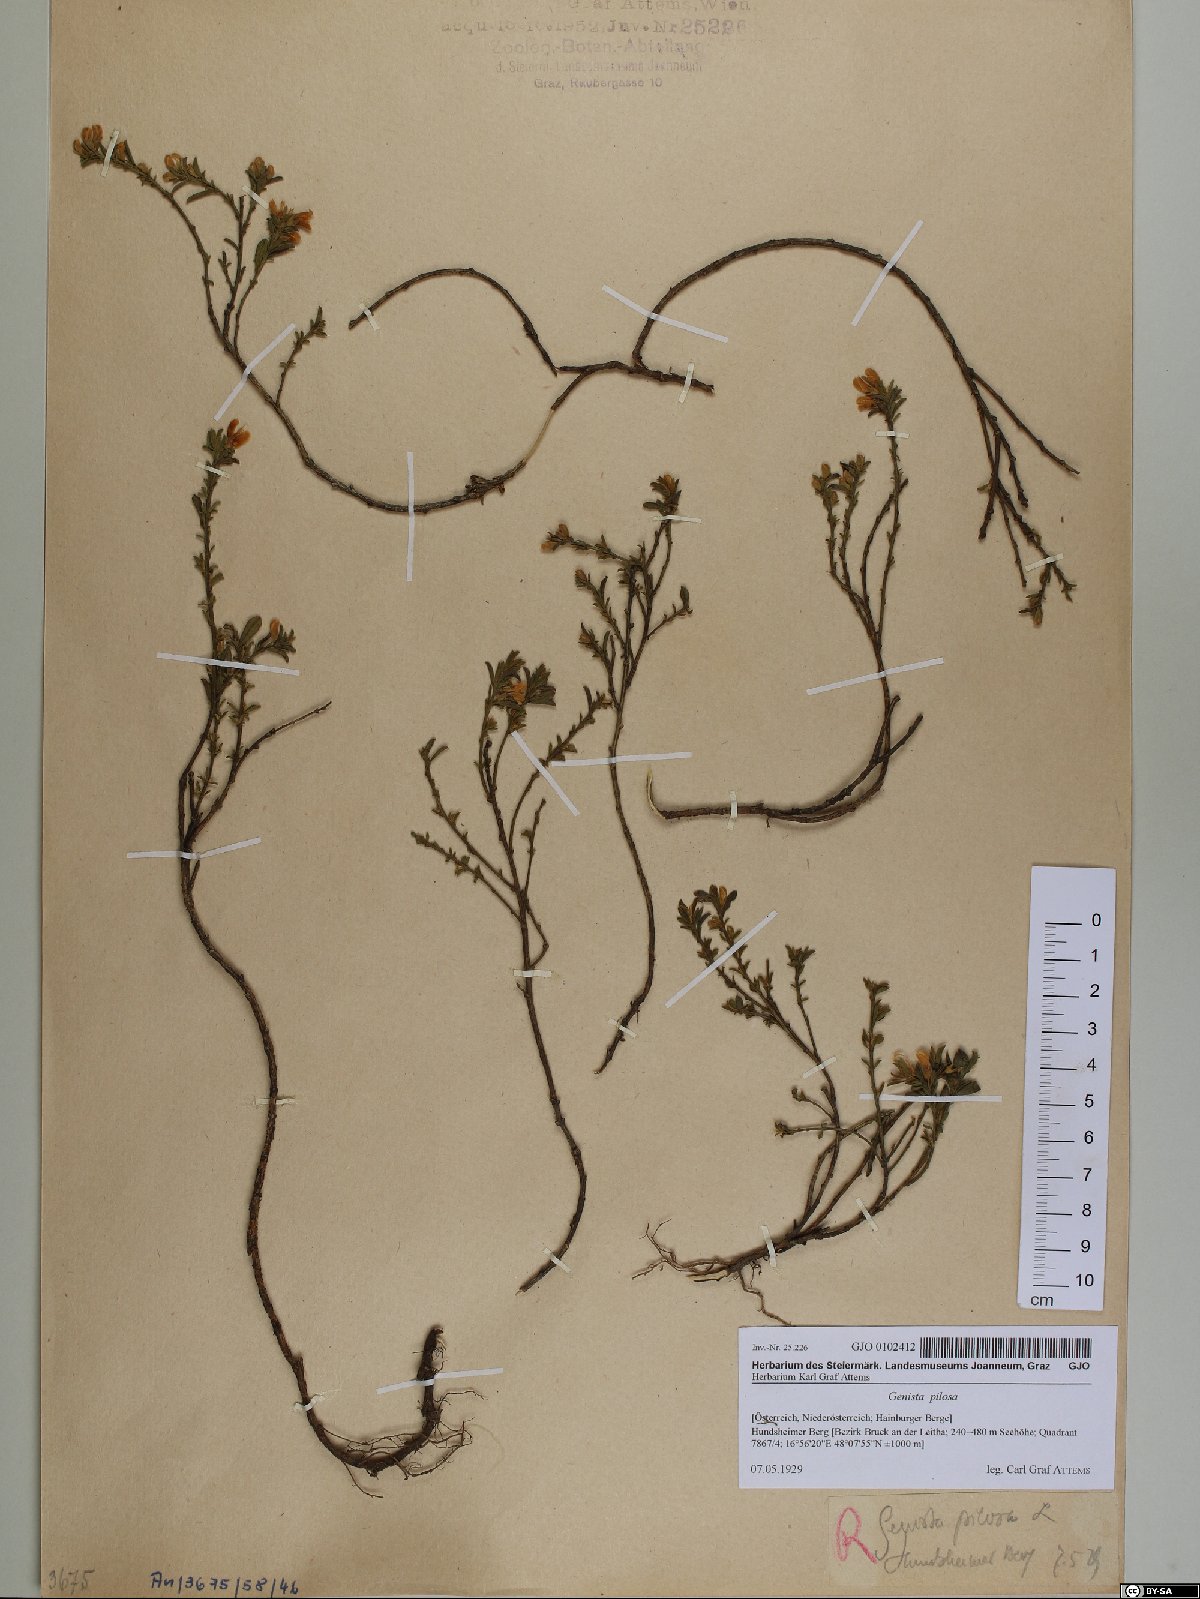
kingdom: Plantae
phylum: Tracheophyta
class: Magnoliopsida
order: Fabales
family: Fabaceae
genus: Genista
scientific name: Genista pilosa
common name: Hairy greenweed
